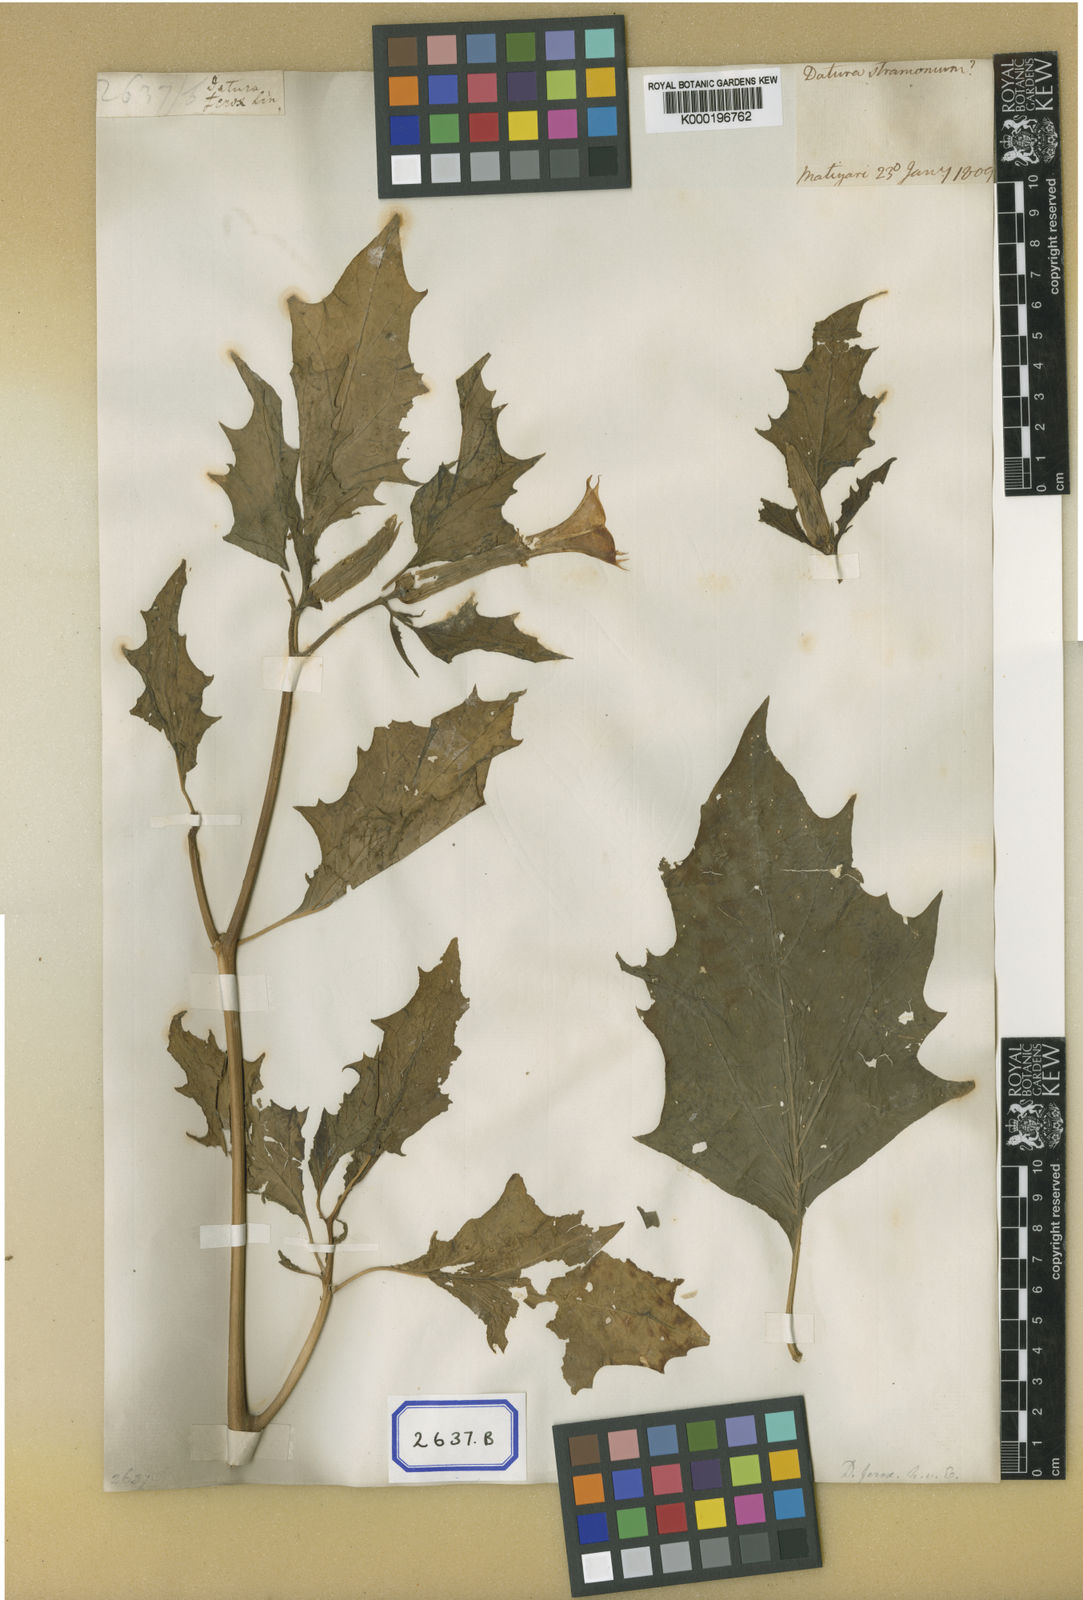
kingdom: Plantae
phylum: Tracheophyta
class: Magnoliopsida
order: Solanales
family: Solanaceae
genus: Datura
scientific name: Datura ferox
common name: Angel's-trumpets
